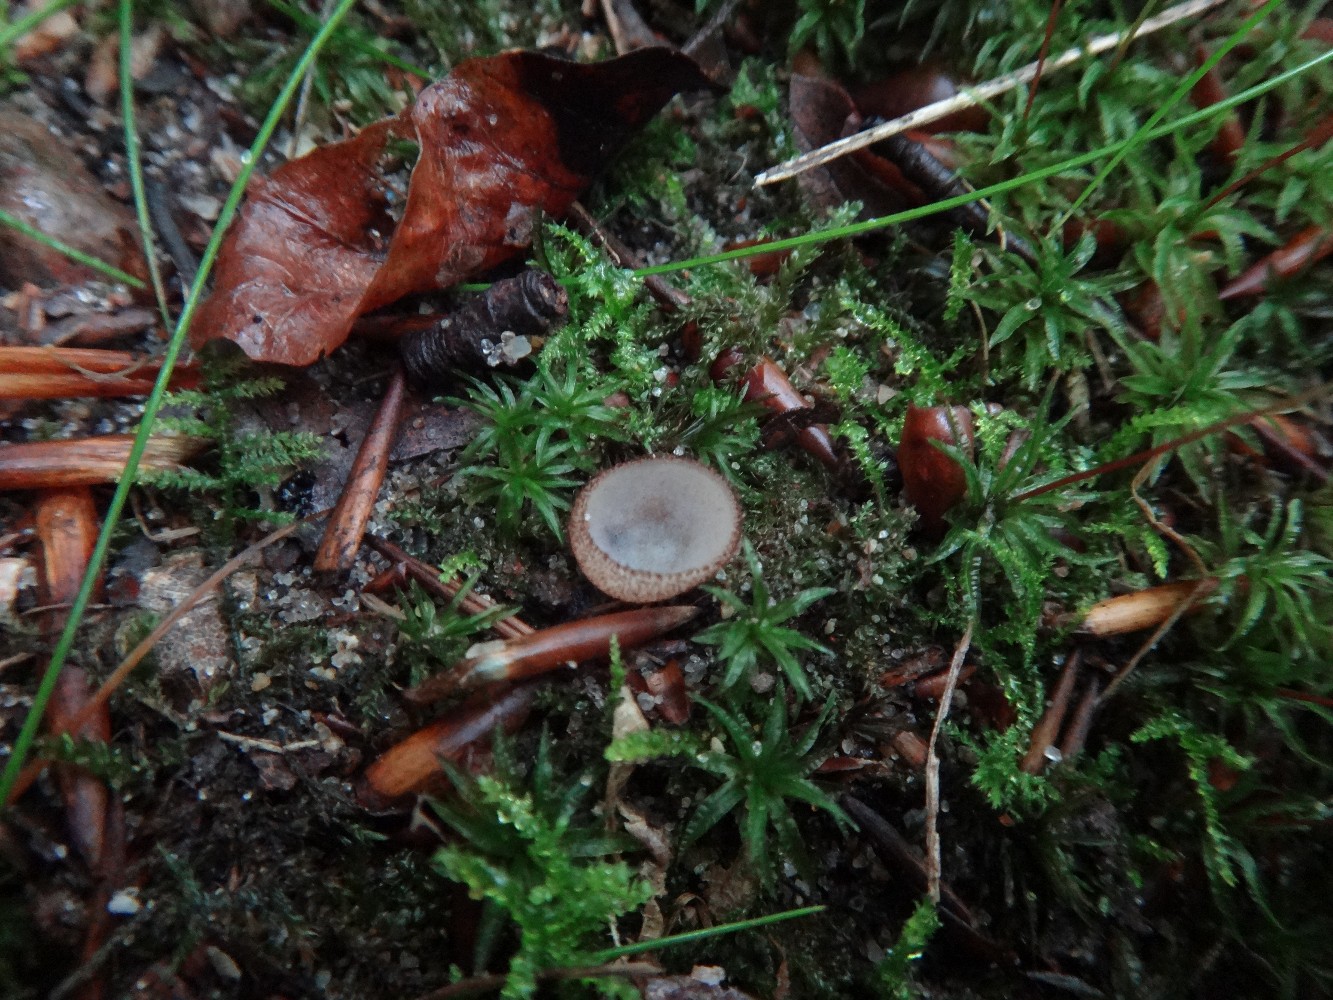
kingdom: Fungi
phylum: Ascomycota
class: Pezizomycetes
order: Pezizales
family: Pyronemataceae
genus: Humaria
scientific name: Humaria hemisphaerica
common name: halvkugleformet børstebæger
